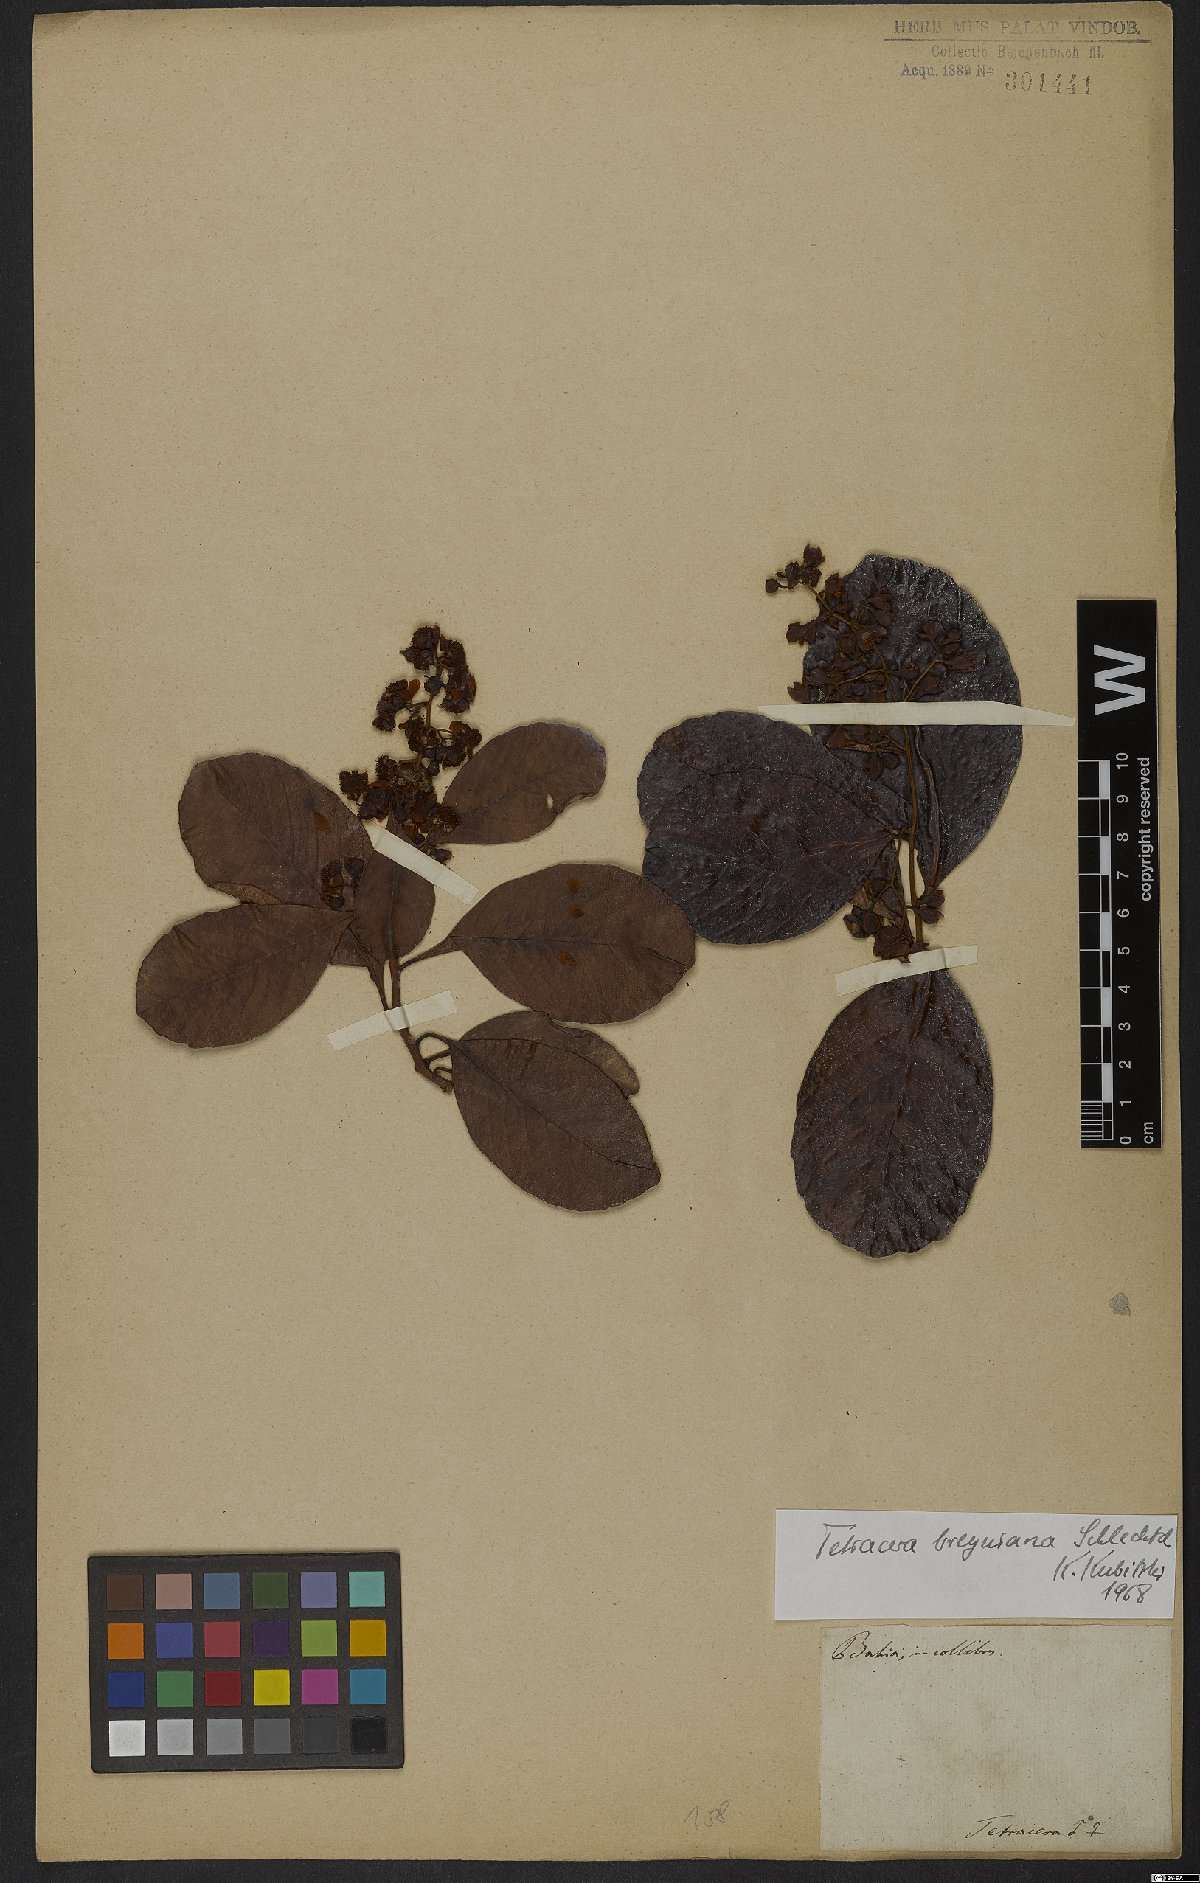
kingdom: Plantae
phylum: Tracheophyta
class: Magnoliopsida
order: Dilleniales
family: Dilleniaceae
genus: Tetracera
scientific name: Tetracera breyniana
